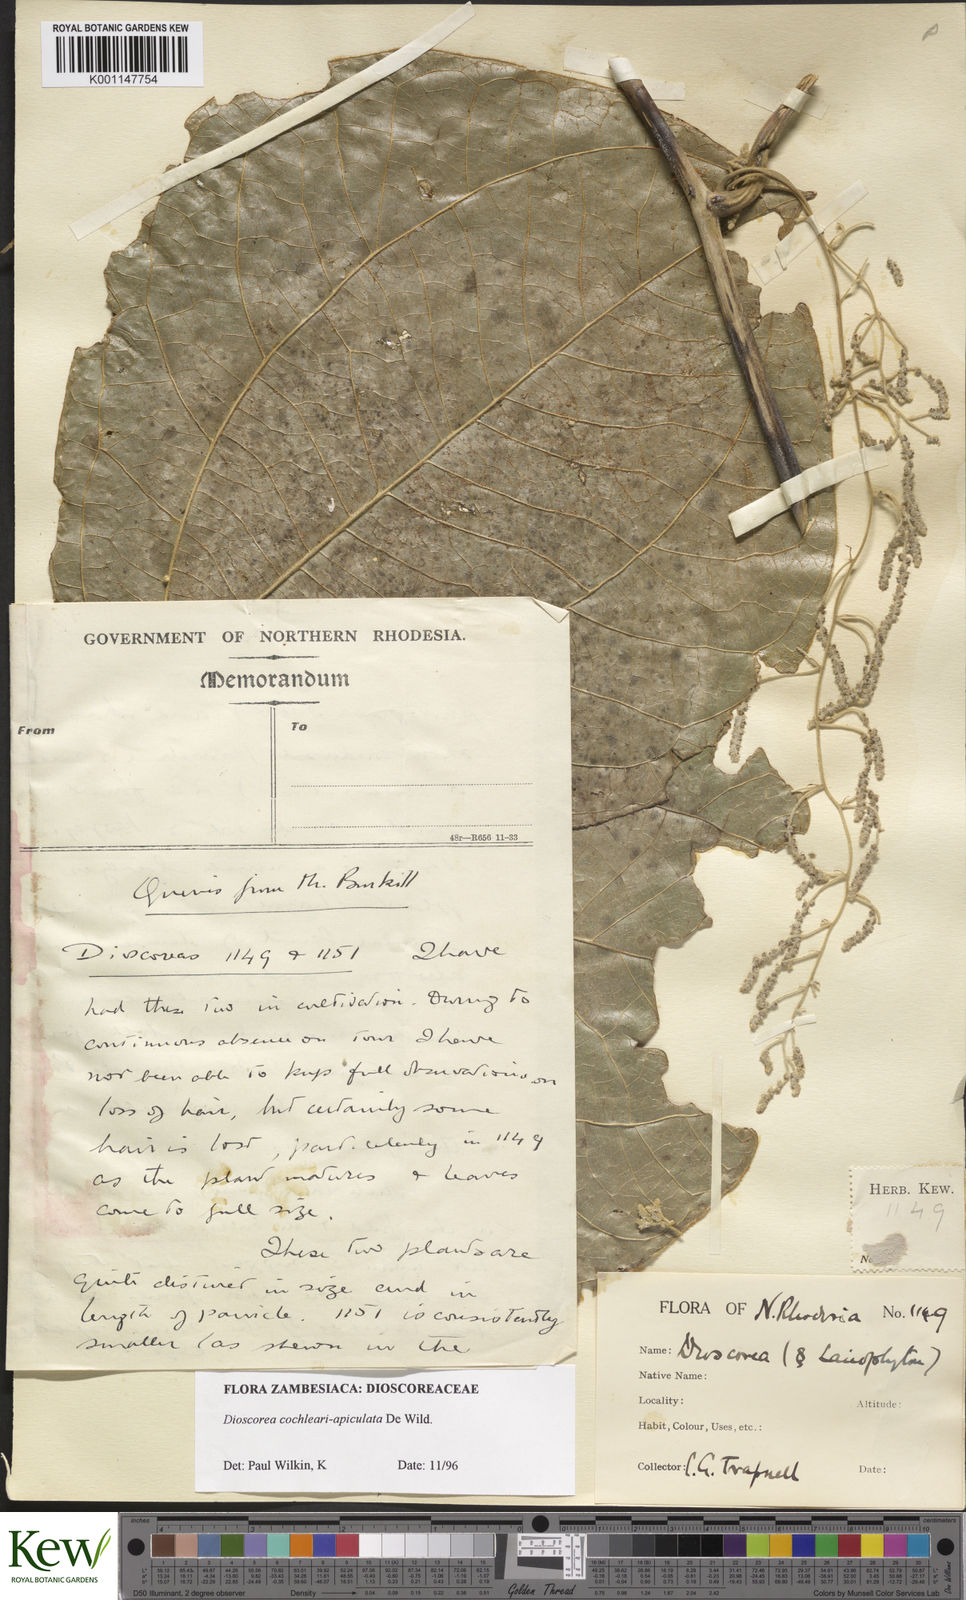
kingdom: Plantae
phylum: Tracheophyta
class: Liliopsida
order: Dioscoreales
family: Dioscoreaceae
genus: Dioscorea
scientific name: Dioscorea cochleariapiculata
